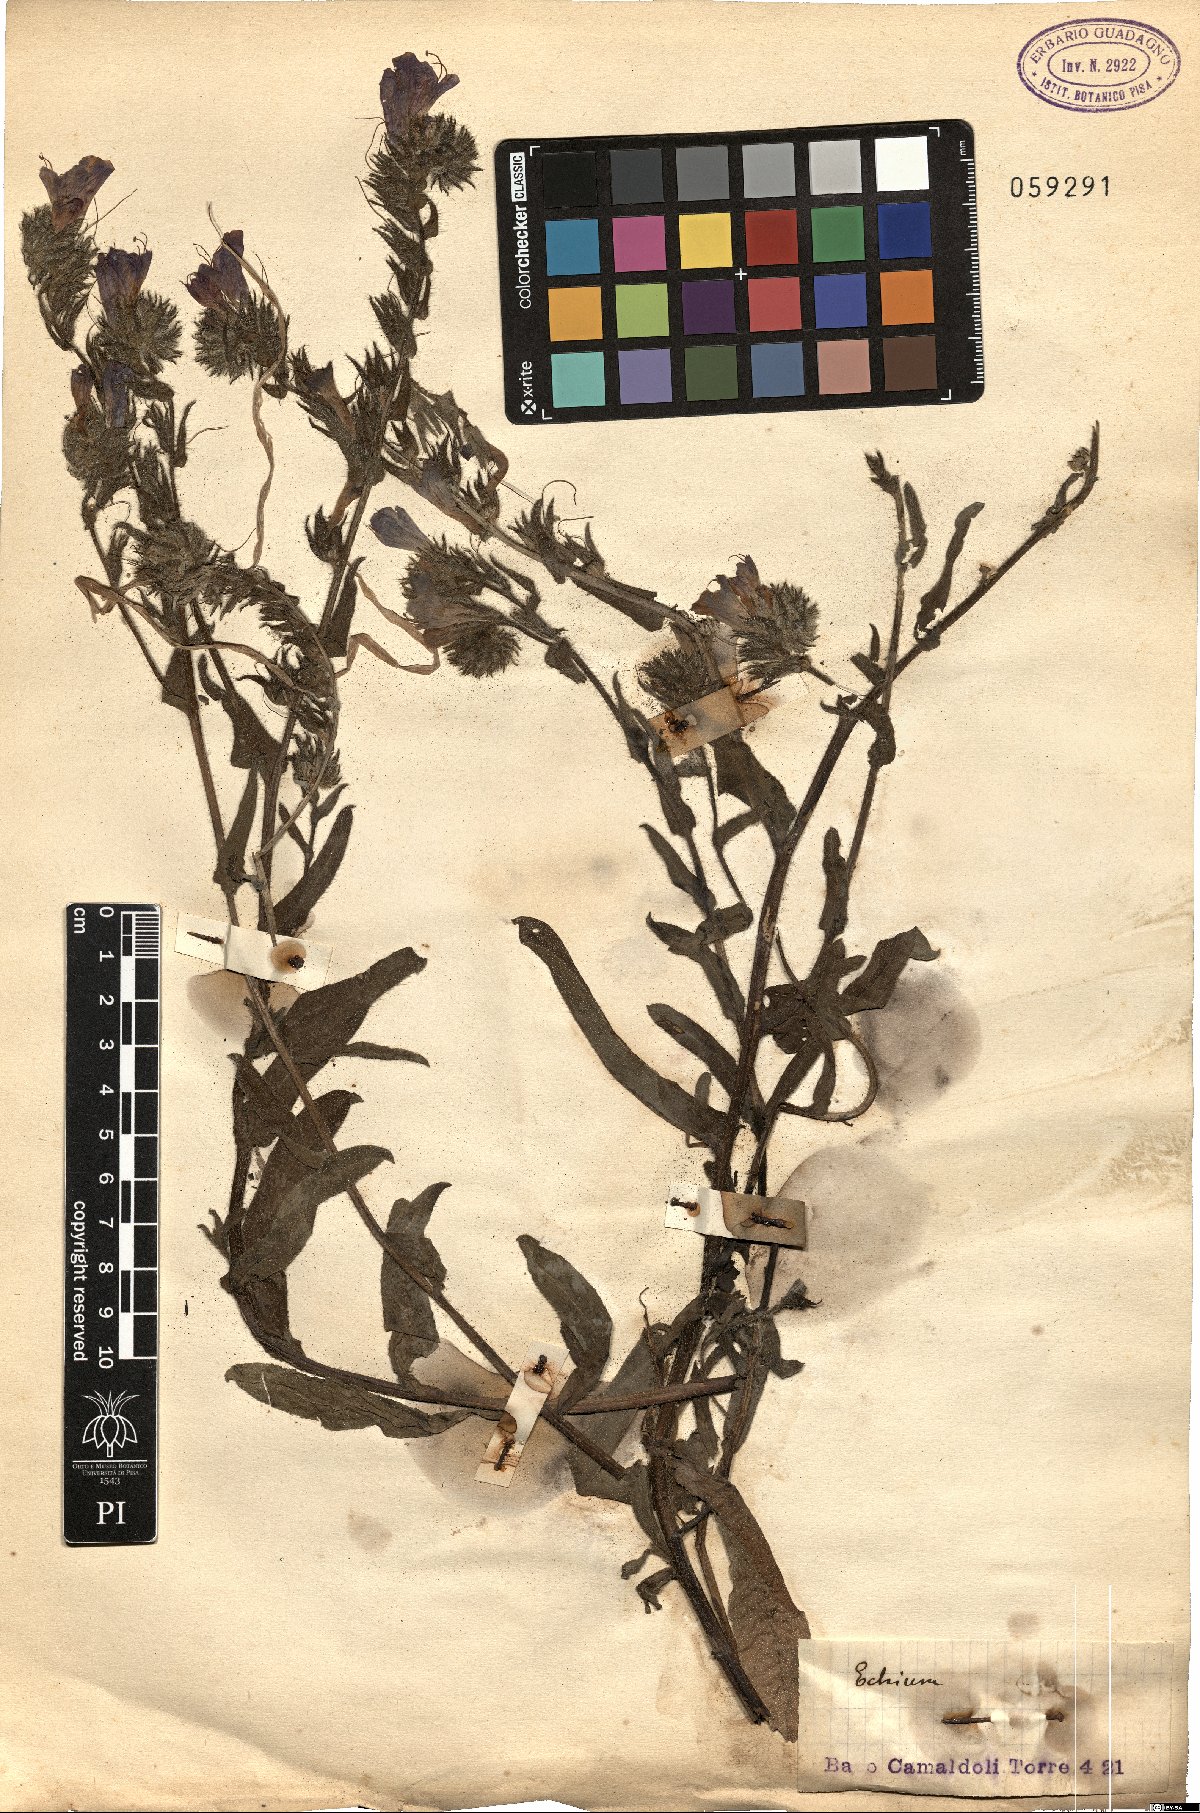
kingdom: Plantae
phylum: Tracheophyta
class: Magnoliopsida
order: Boraginales
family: Boraginaceae
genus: Echium
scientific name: Echium
